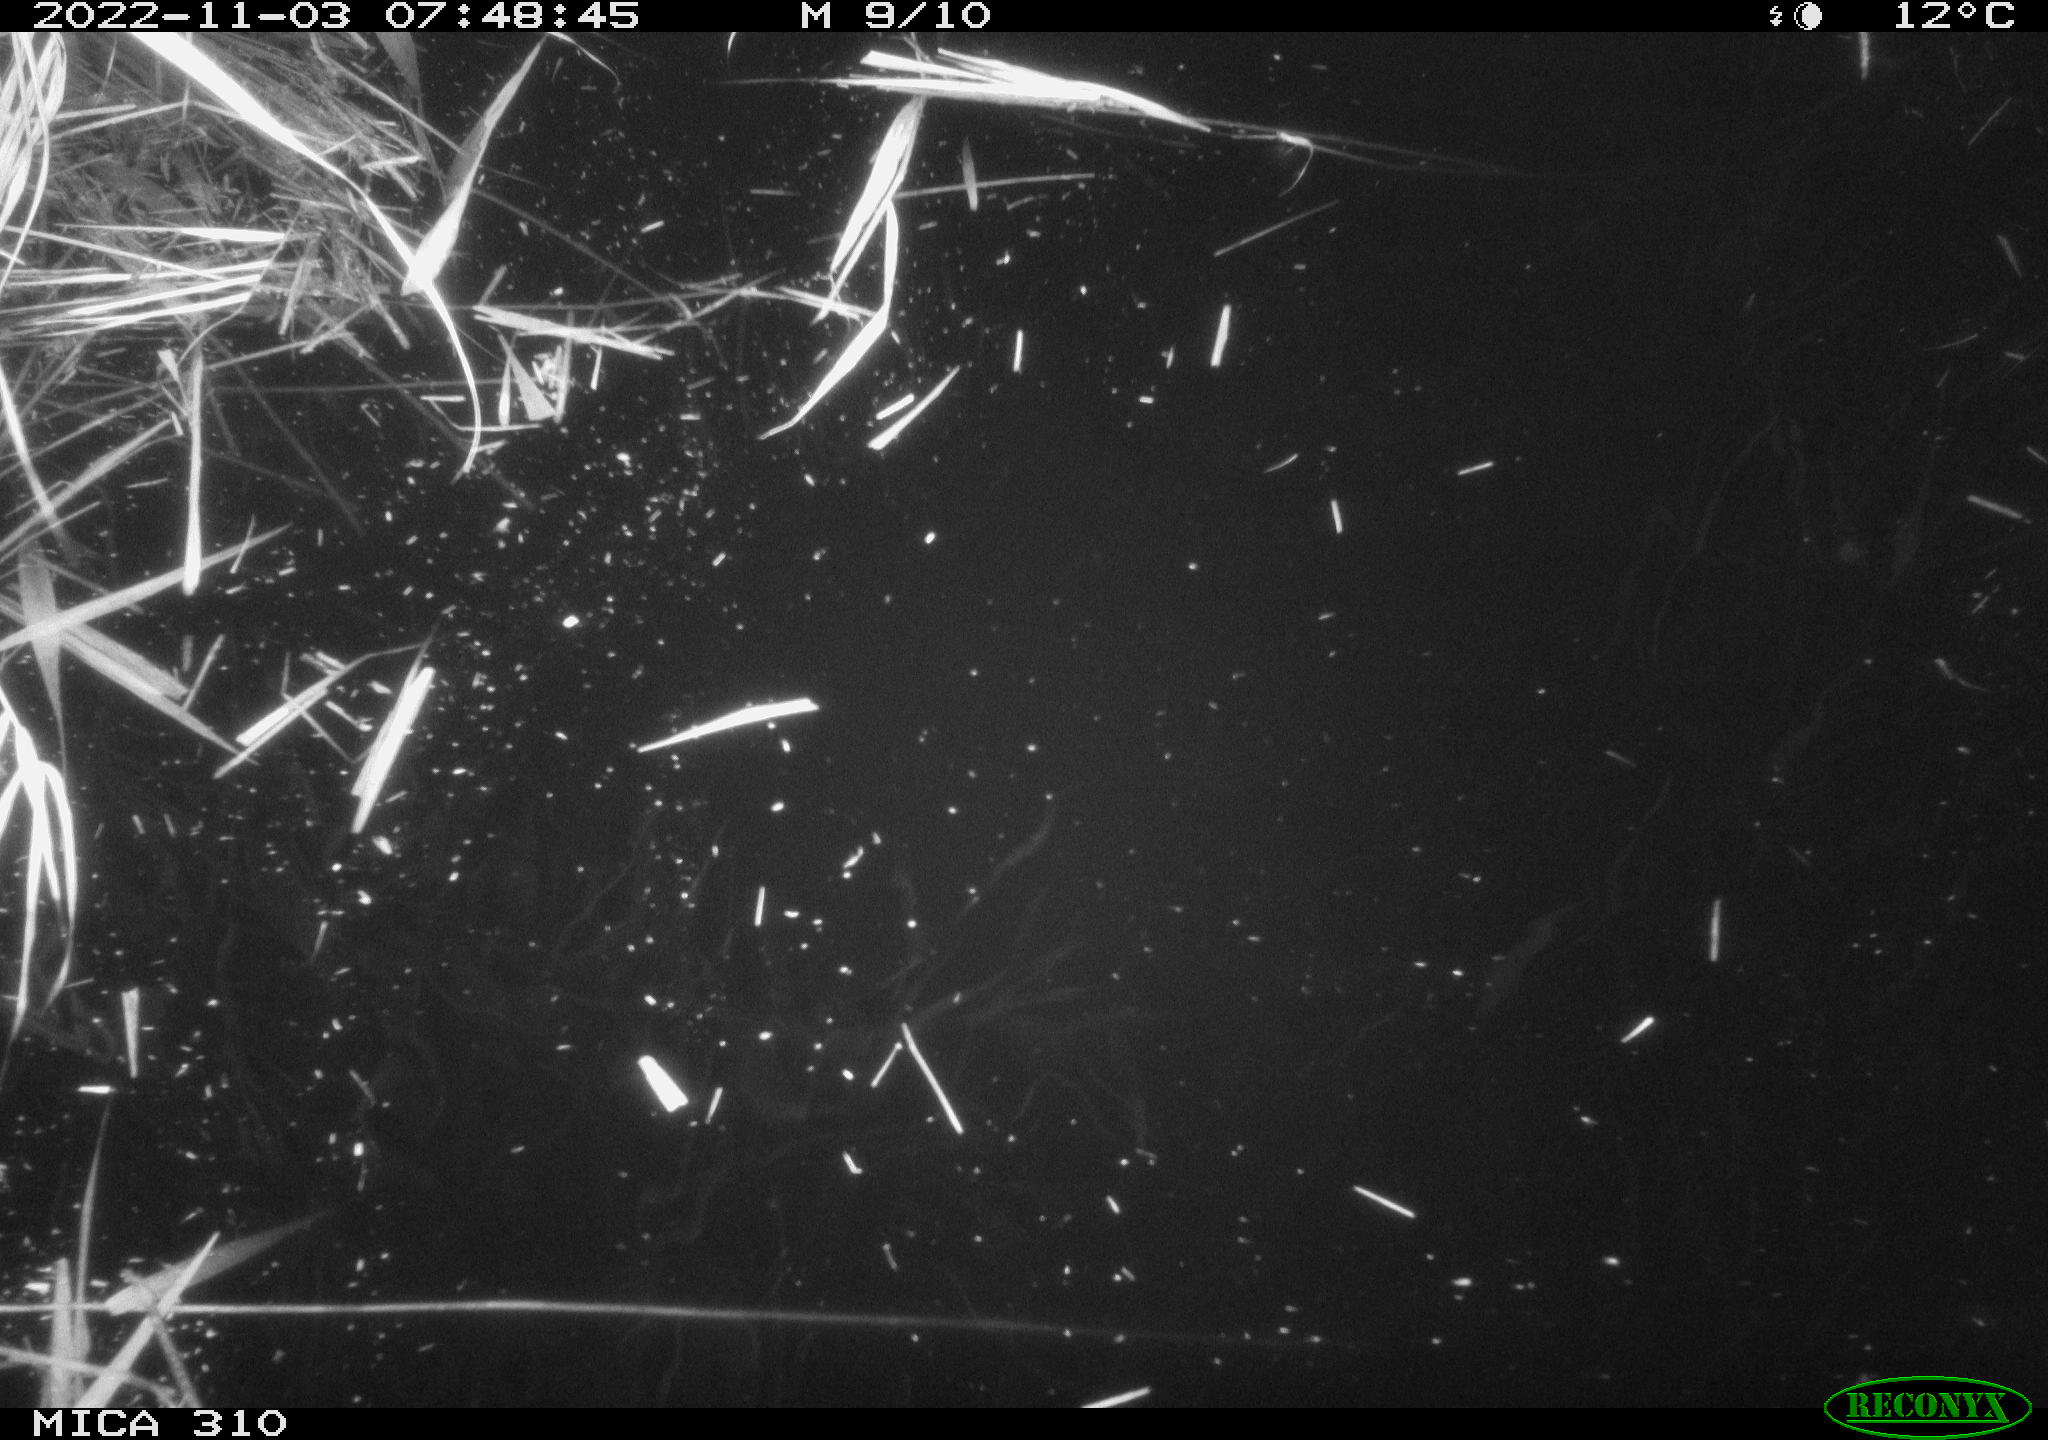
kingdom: Animalia
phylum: Chordata
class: Mammalia
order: Rodentia
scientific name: Rodentia
